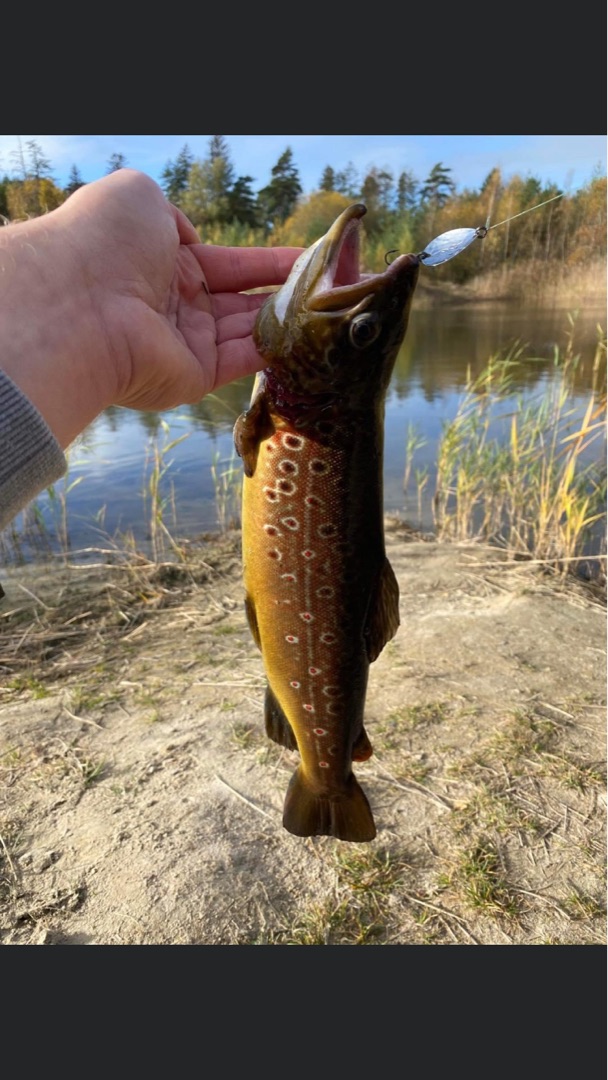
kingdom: Animalia
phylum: Chordata
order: Salmoniformes
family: Salmonidae
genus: Salmo
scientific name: Salmo trutta
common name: Ørred
